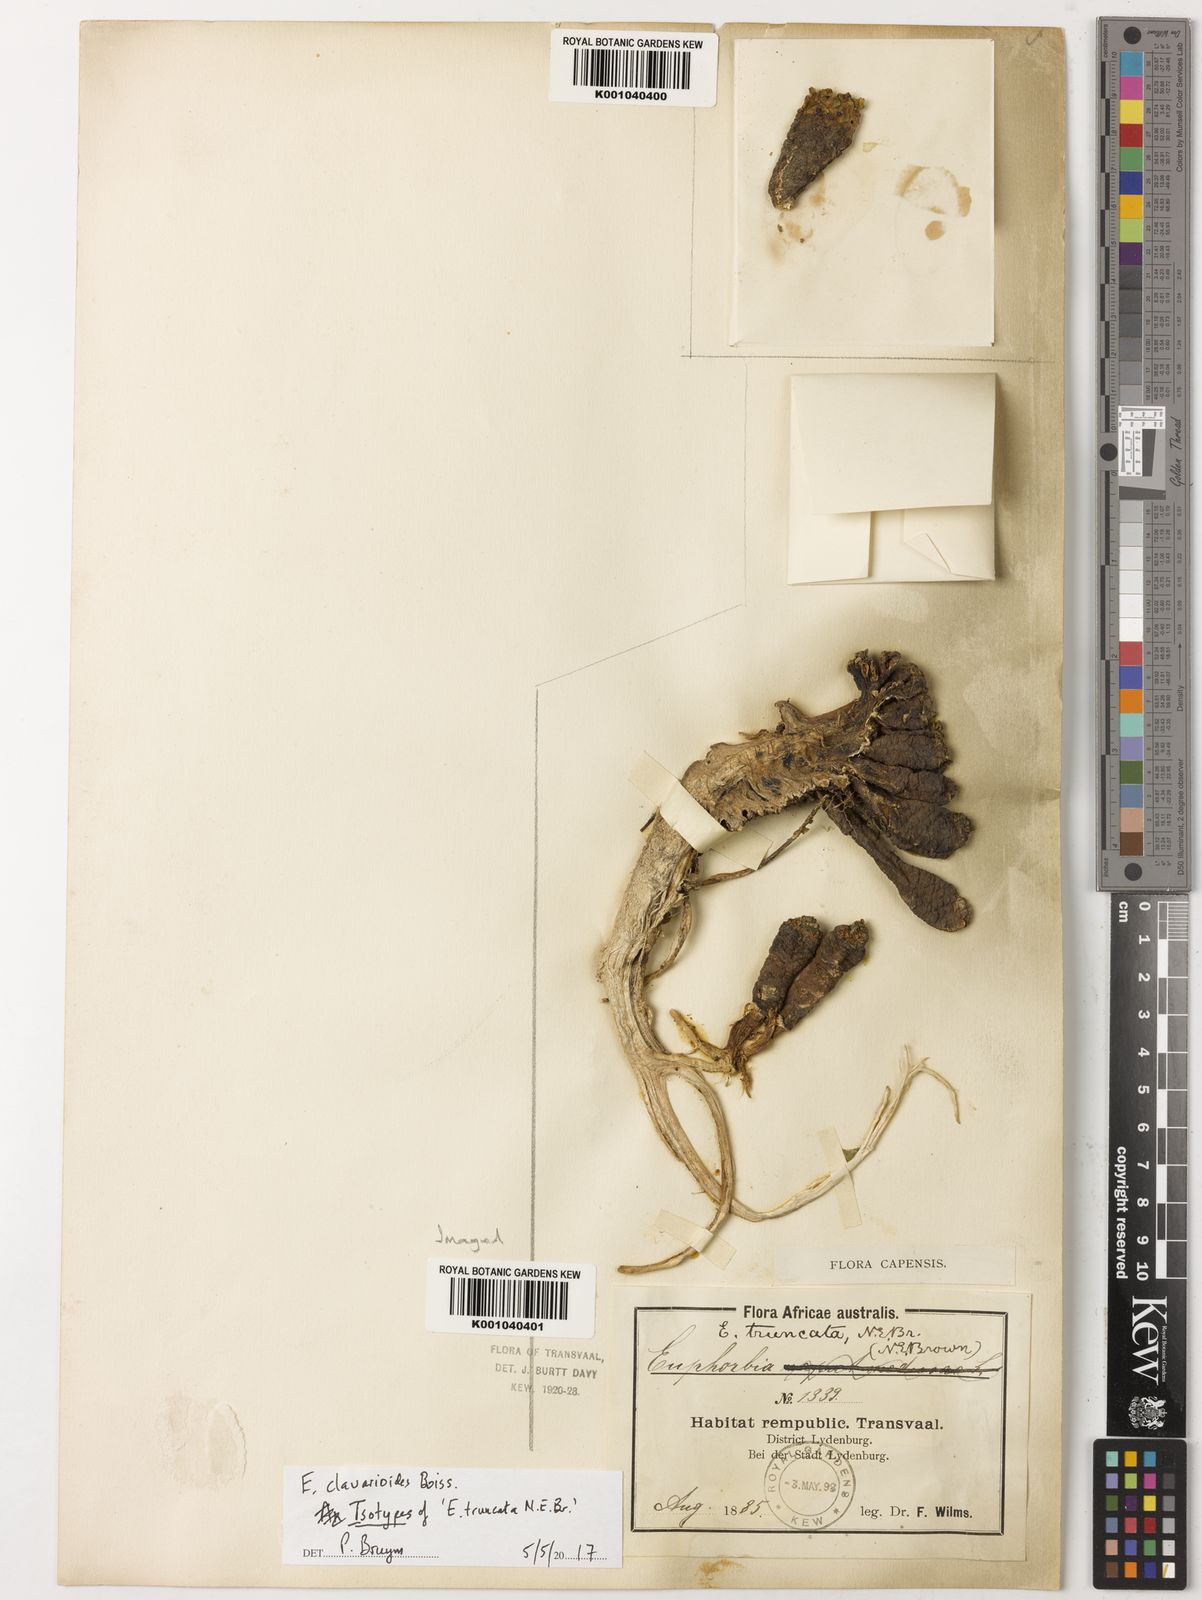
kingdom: Plantae
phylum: Tracheophyta
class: Magnoliopsida
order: Malpighiales
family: Euphorbiaceae
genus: Euphorbia
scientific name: Euphorbia clavarioides
